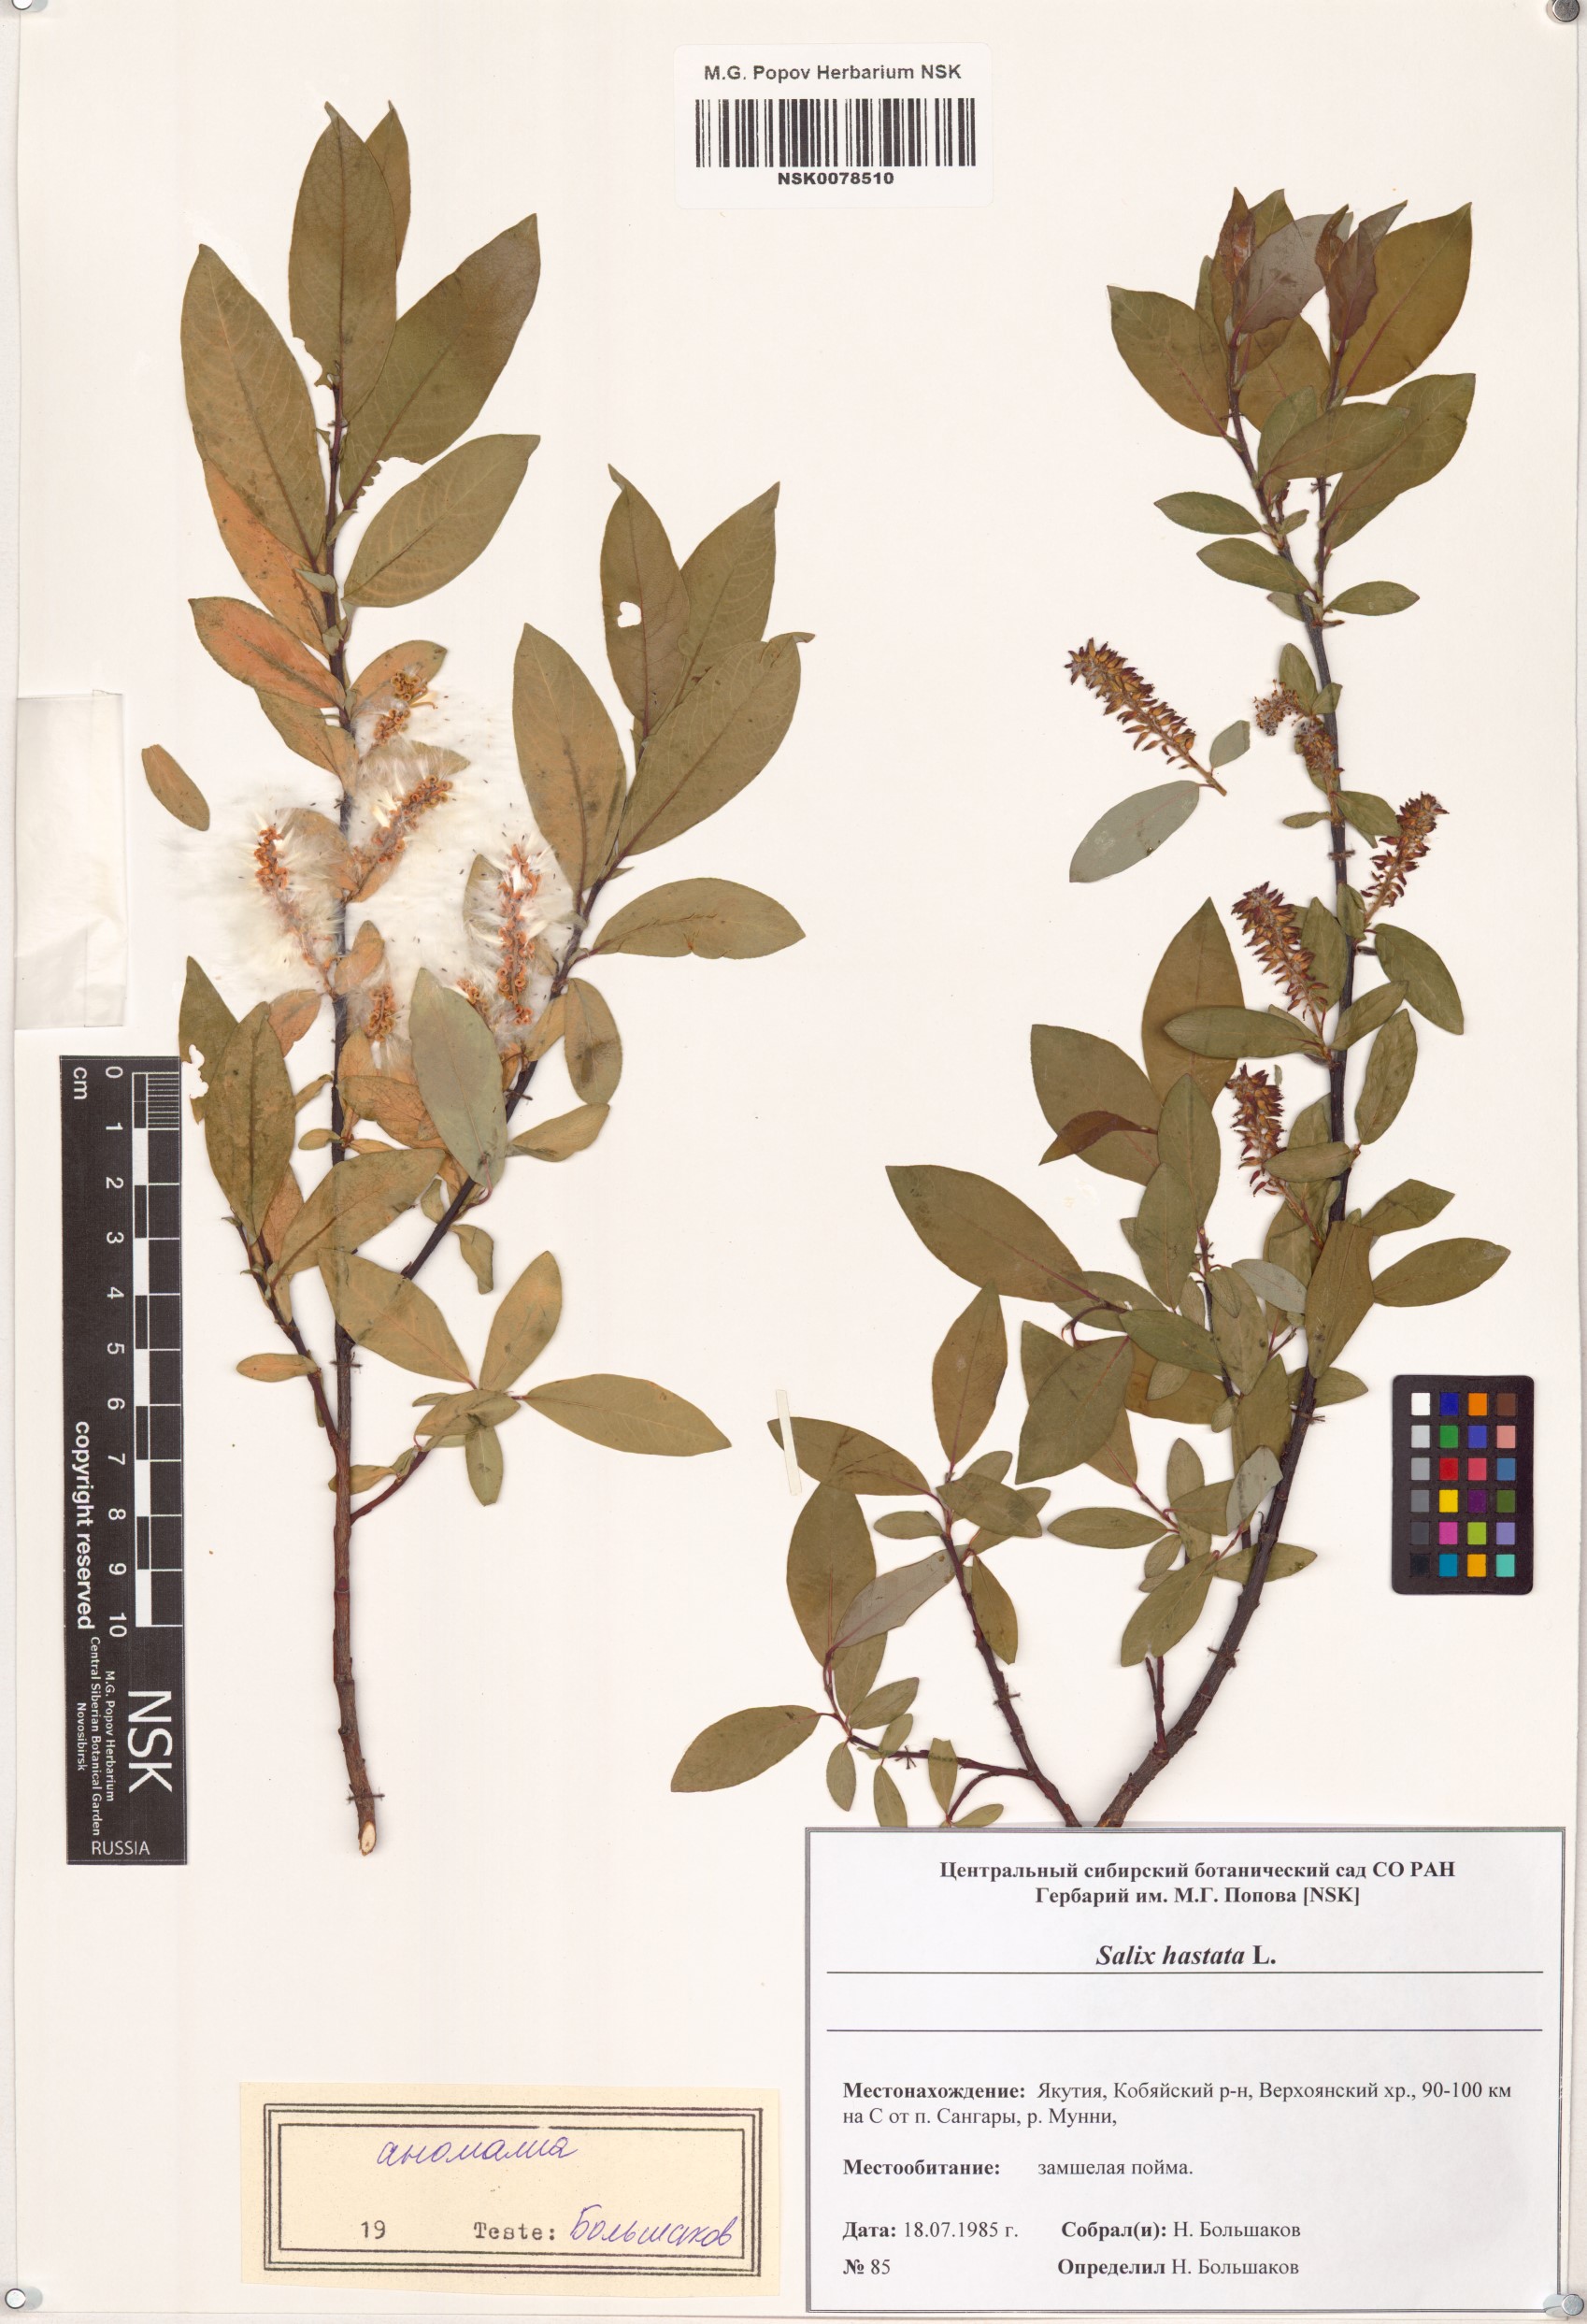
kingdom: Plantae
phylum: Tracheophyta
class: Magnoliopsida
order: Malpighiales
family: Salicaceae
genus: Salix
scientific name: Salix hastata
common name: Halberd willow
